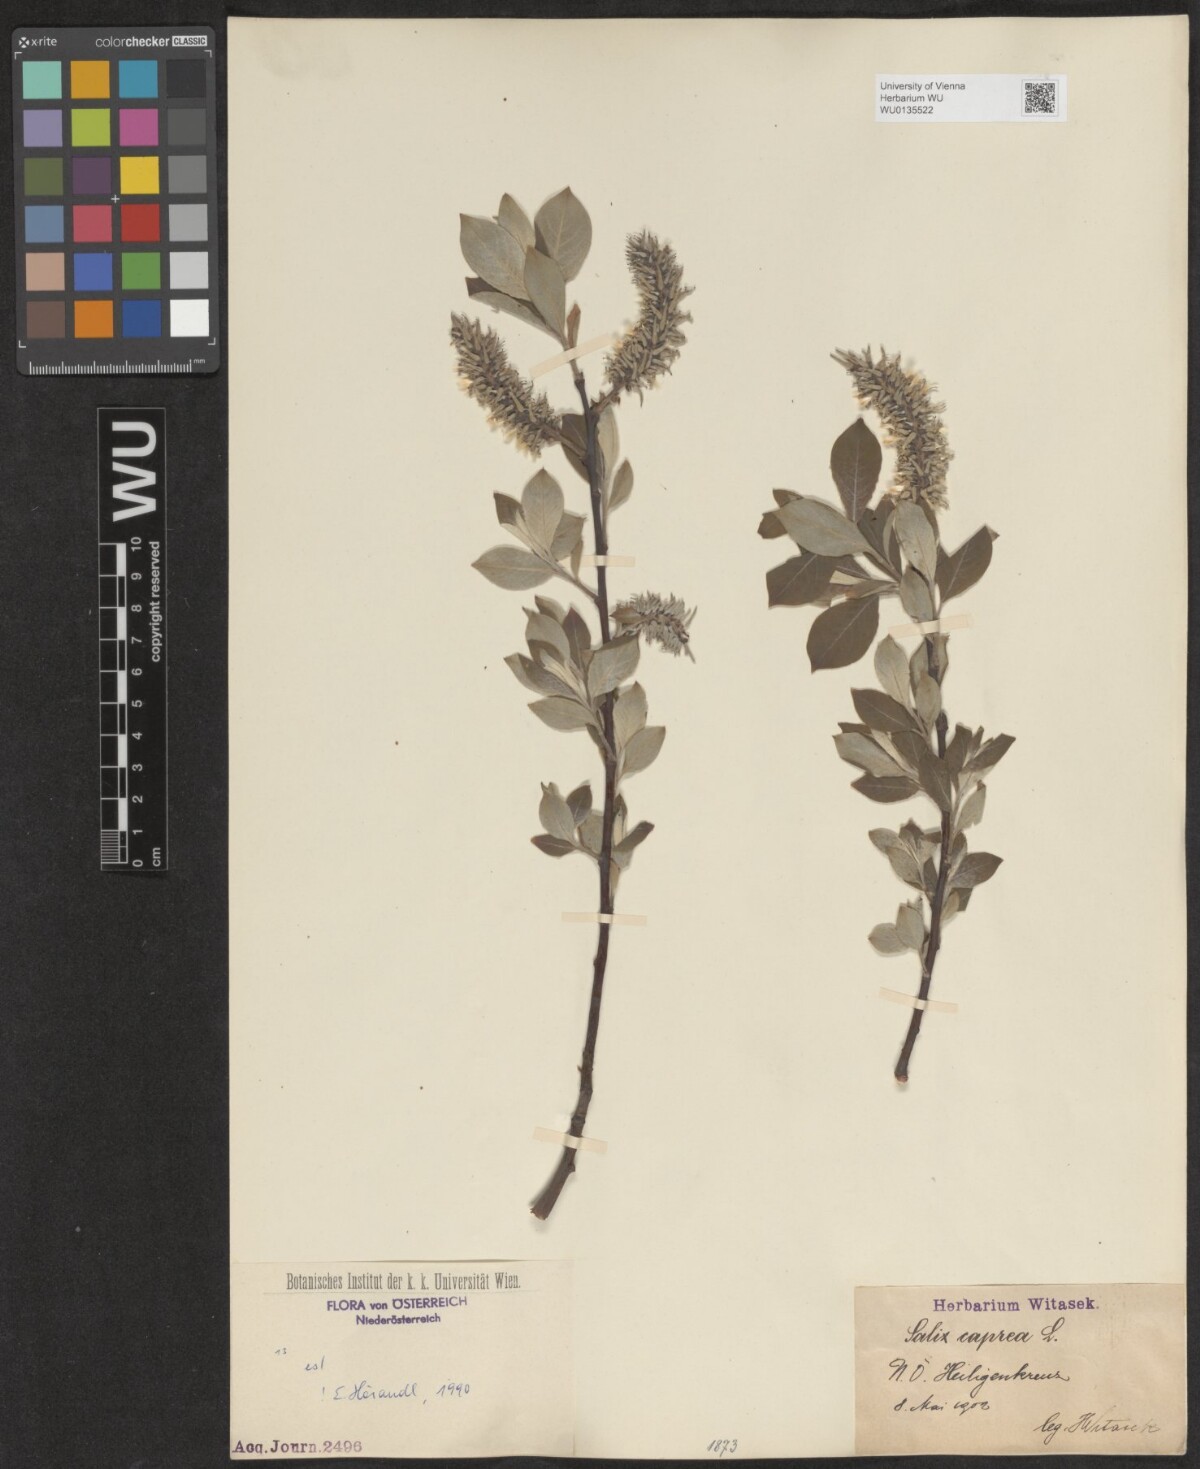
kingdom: Plantae
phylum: Tracheophyta
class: Magnoliopsida
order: Malpighiales
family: Salicaceae
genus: Salix
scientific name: Salix caprea
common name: Goat willow
